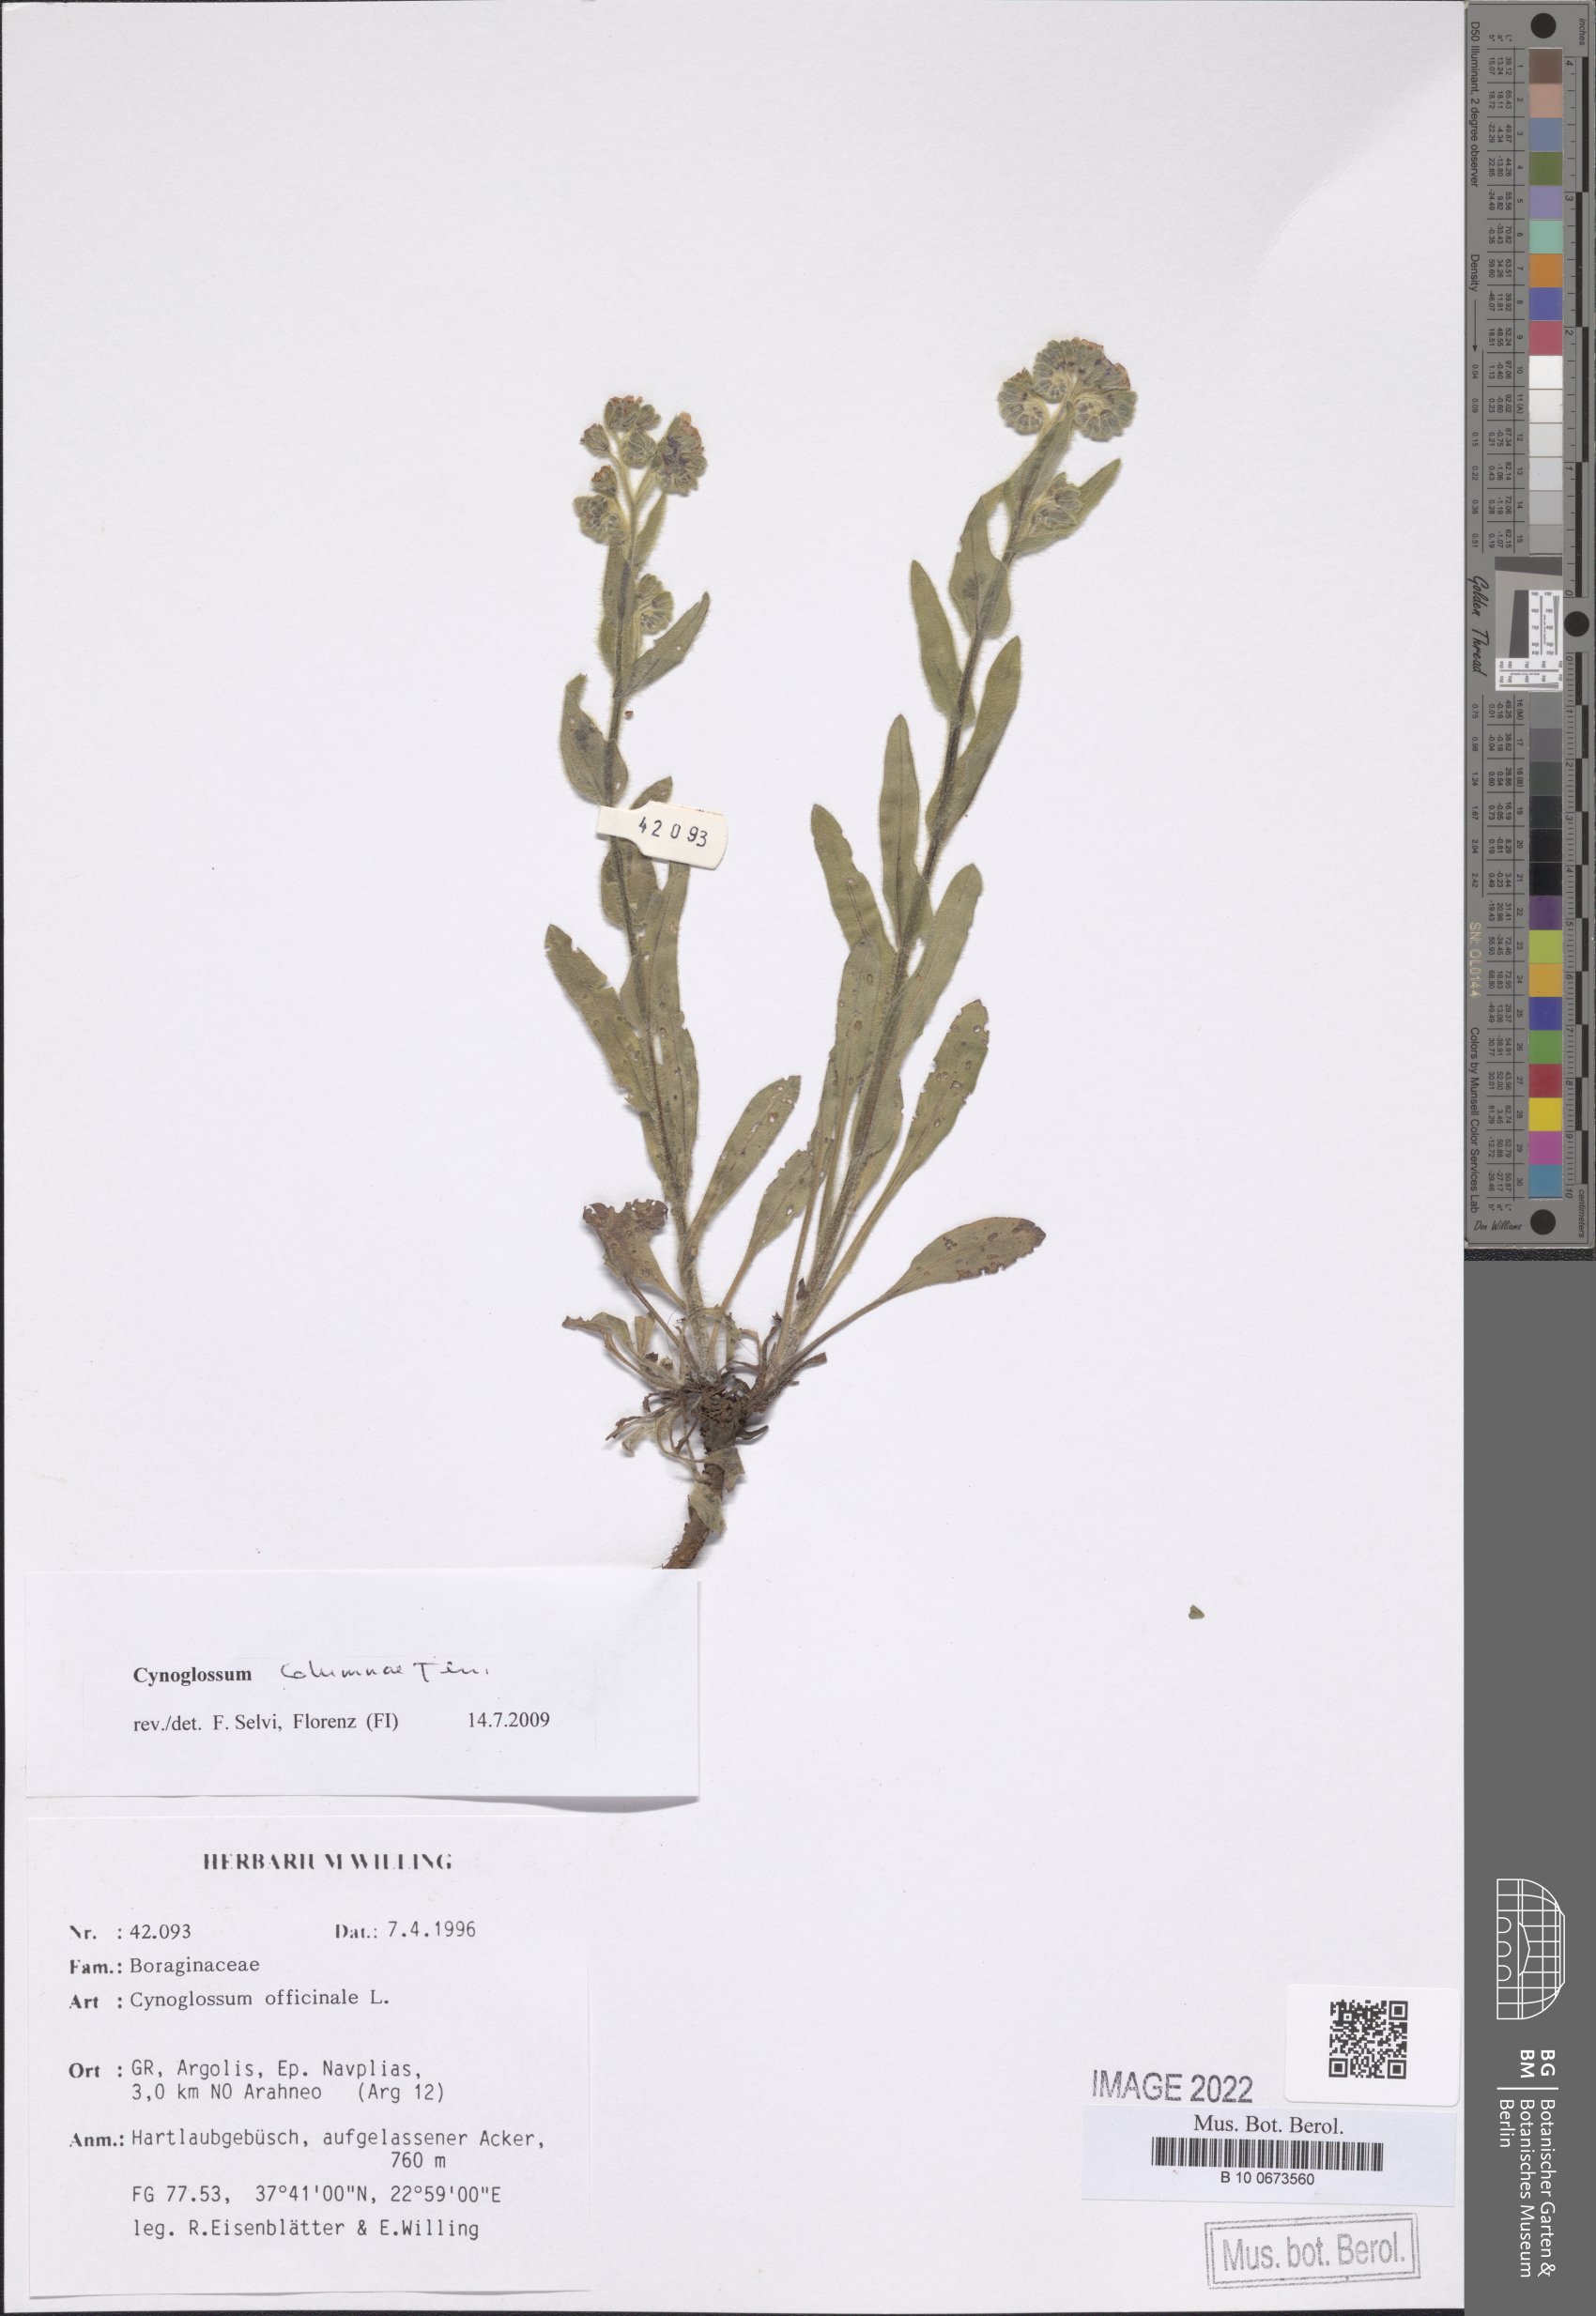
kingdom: Plantae
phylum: Tracheophyta
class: Magnoliopsida
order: Boraginales
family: Boraginaceae
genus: Rindera
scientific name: Rindera columnae
